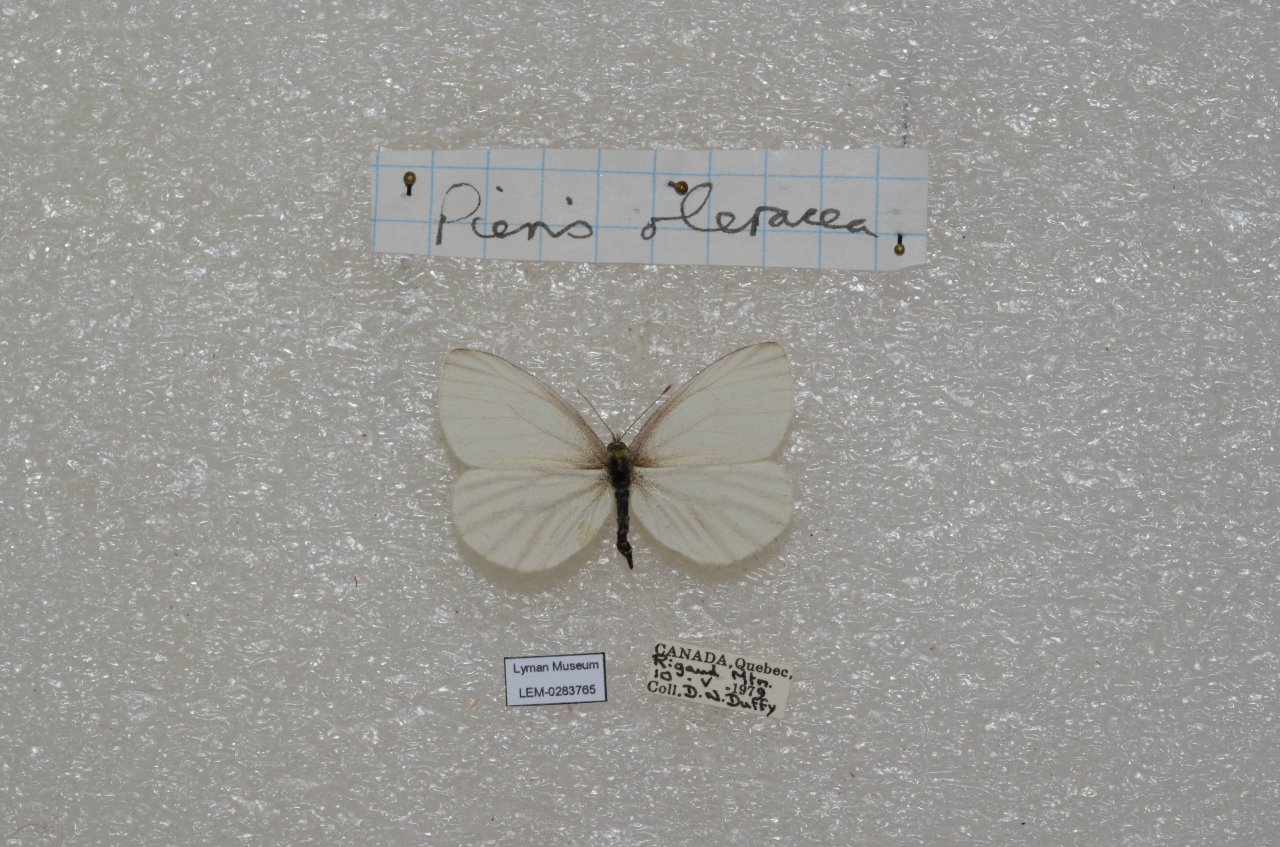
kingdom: Animalia
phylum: Arthropoda
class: Insecta
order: Lepidoptera
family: Pieridae
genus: Pieris
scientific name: Pieris oleracea
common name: Mustard White
